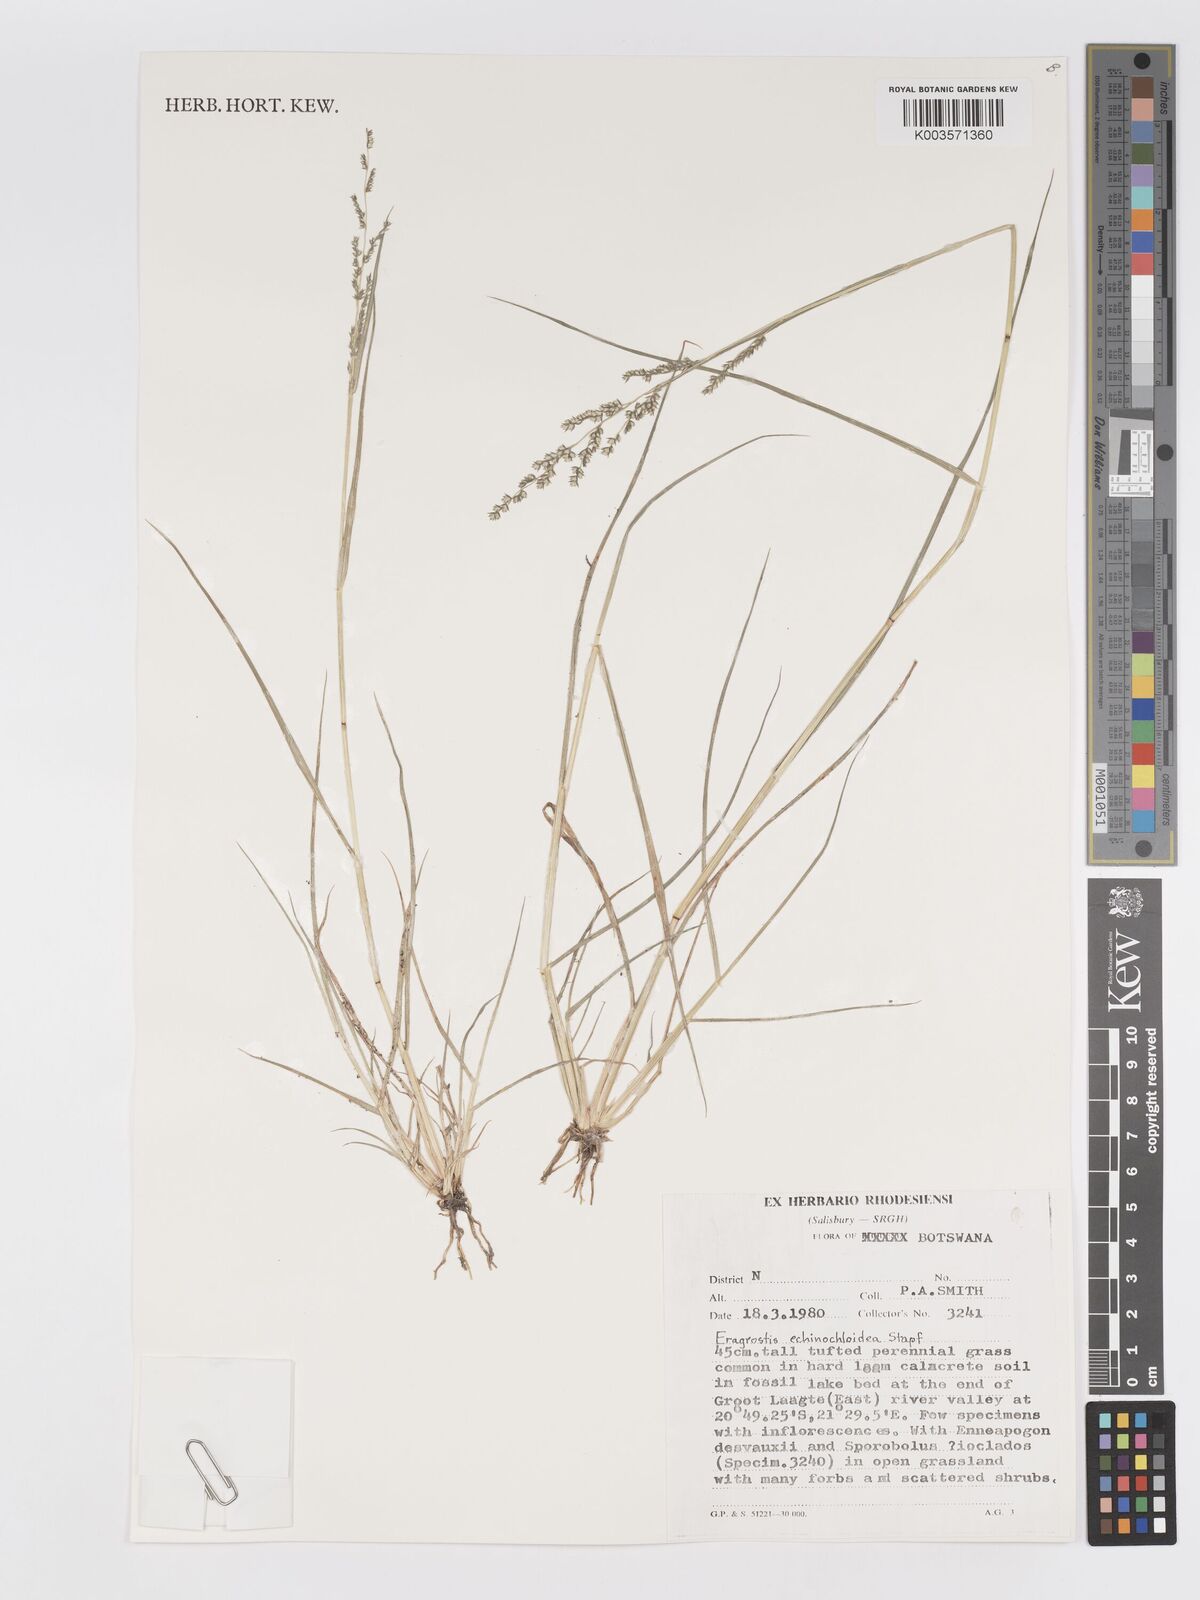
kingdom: Plantae
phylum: Tracheophyta
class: Liliopsida
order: Poales
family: Poaceae
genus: Eragrostis
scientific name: Eragrostis echinochloidea
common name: African lovegrass
